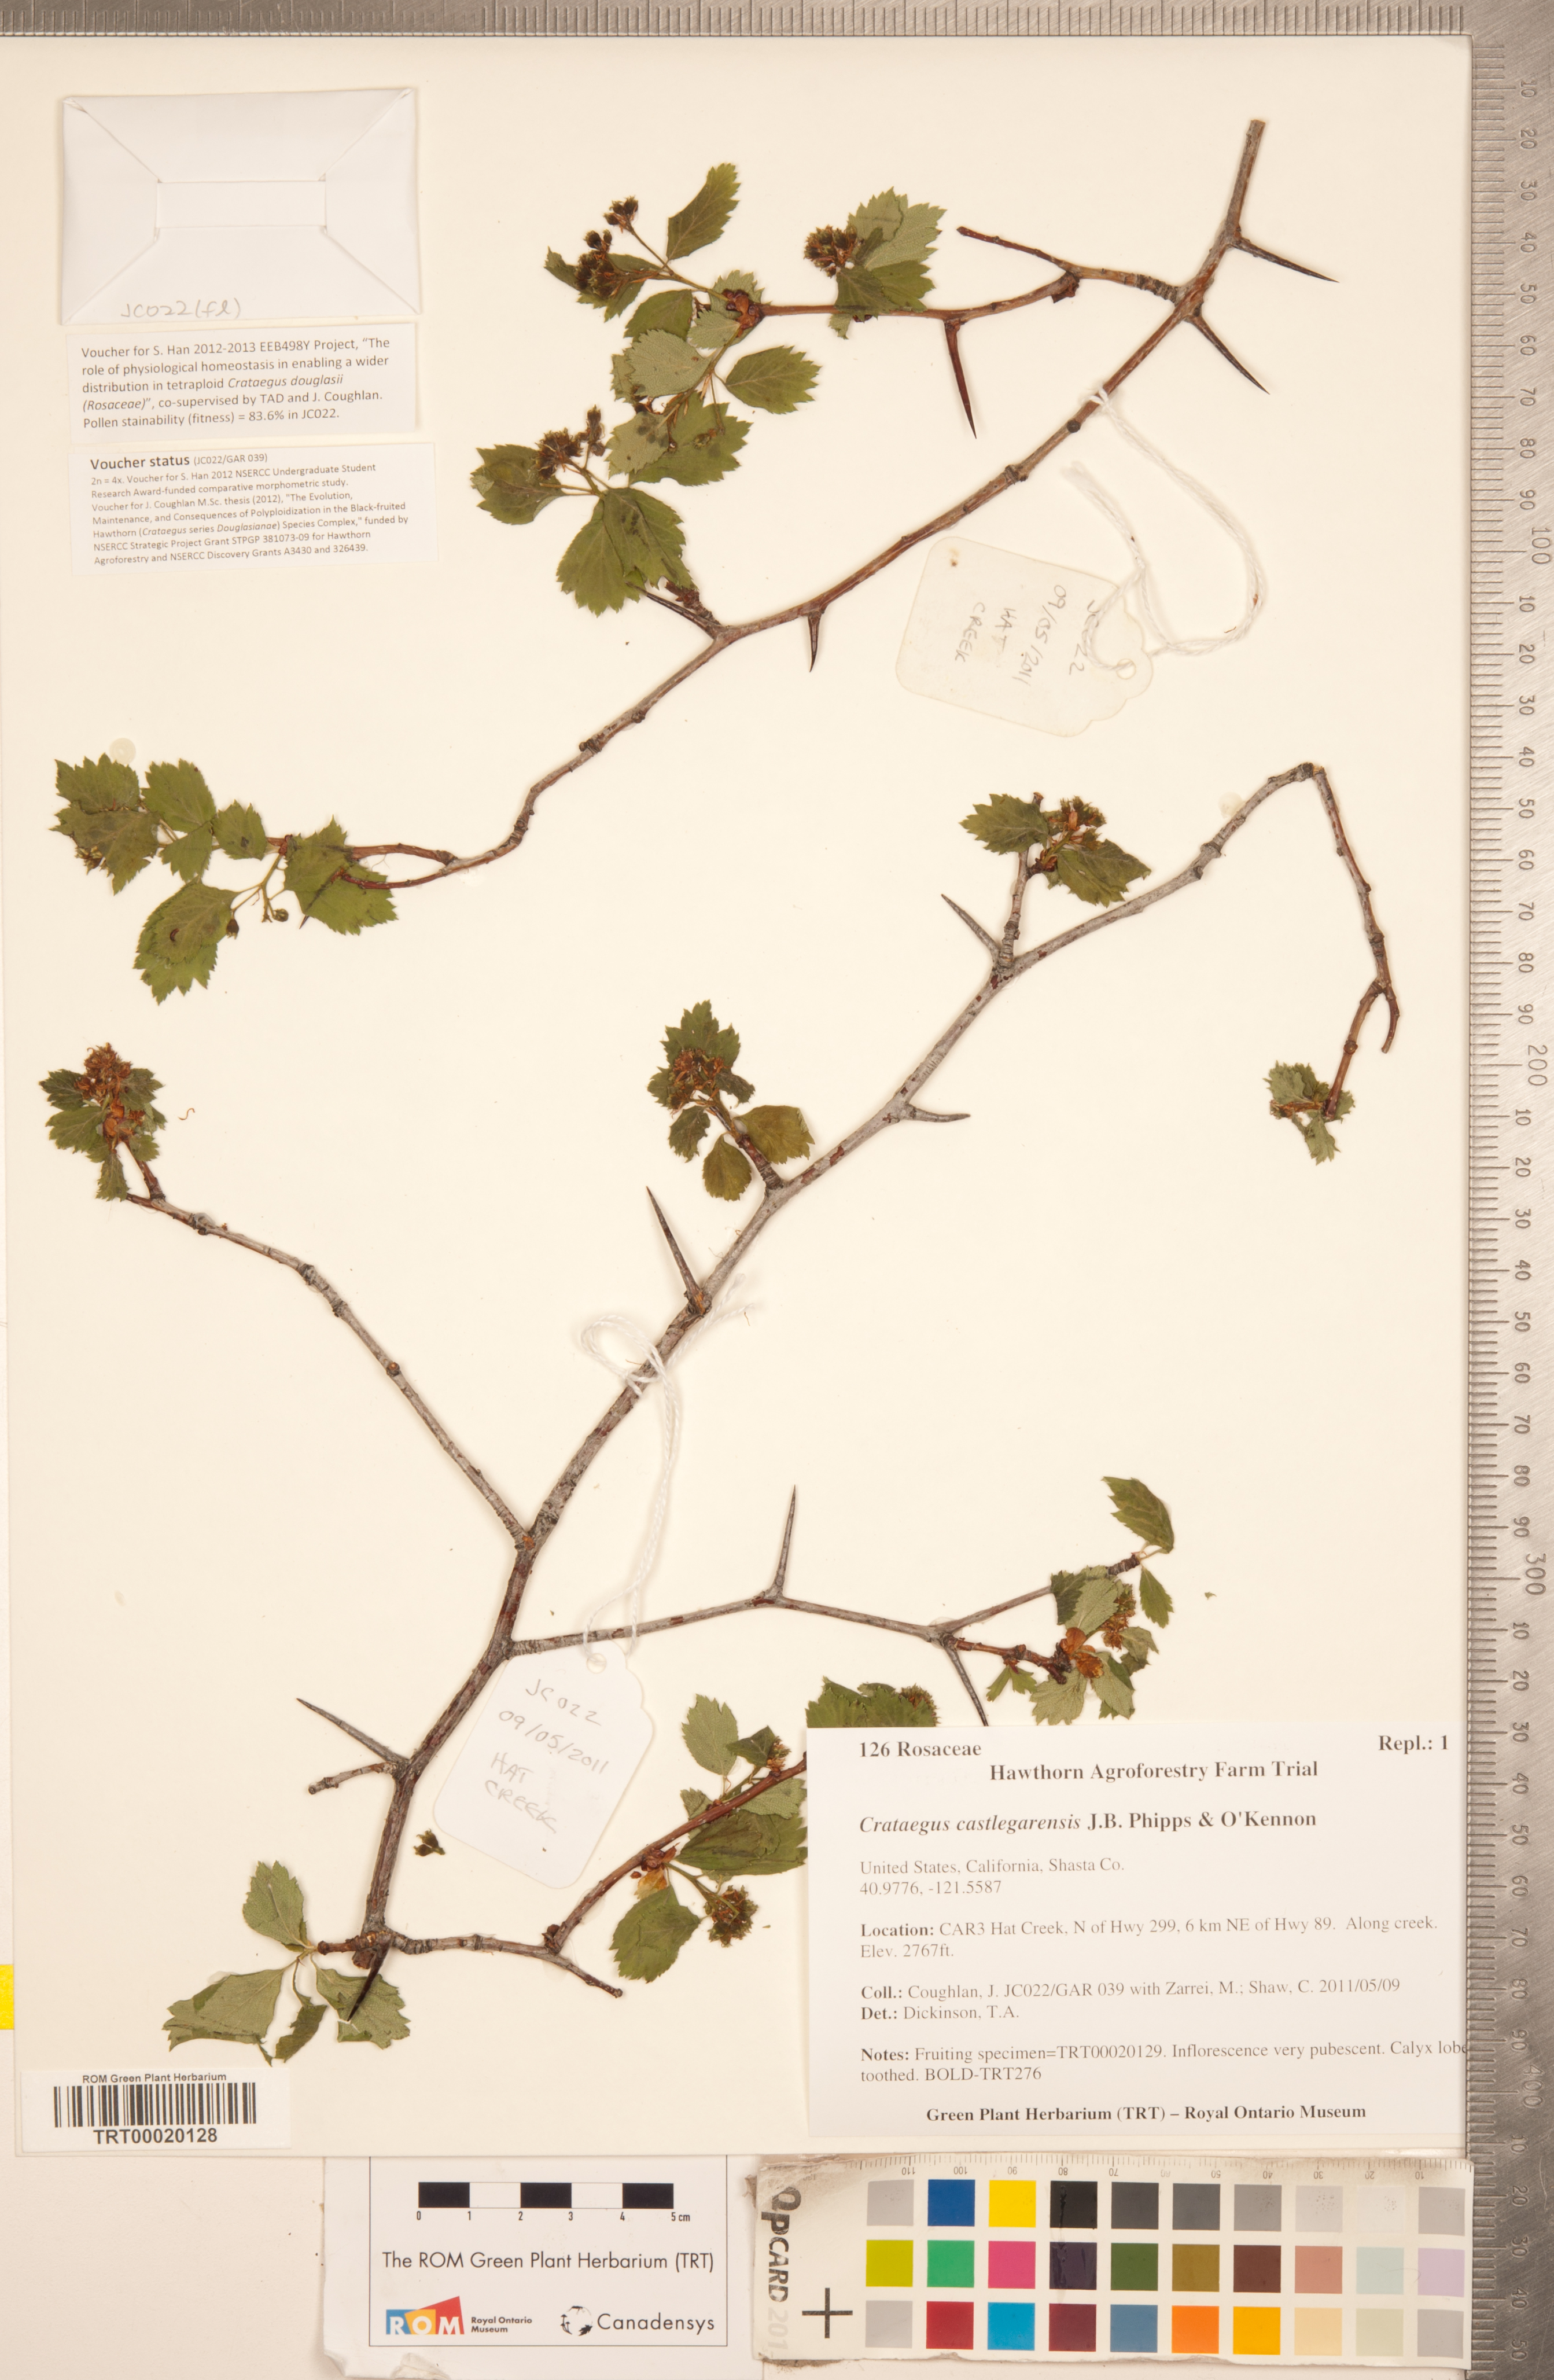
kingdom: Plantae
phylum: Tracheophyta
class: Magnoliopsida
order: Rosales
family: Rosaceae
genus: Crataegus
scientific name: Crataegus castlegarensis
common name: Castlegar hawthorn
